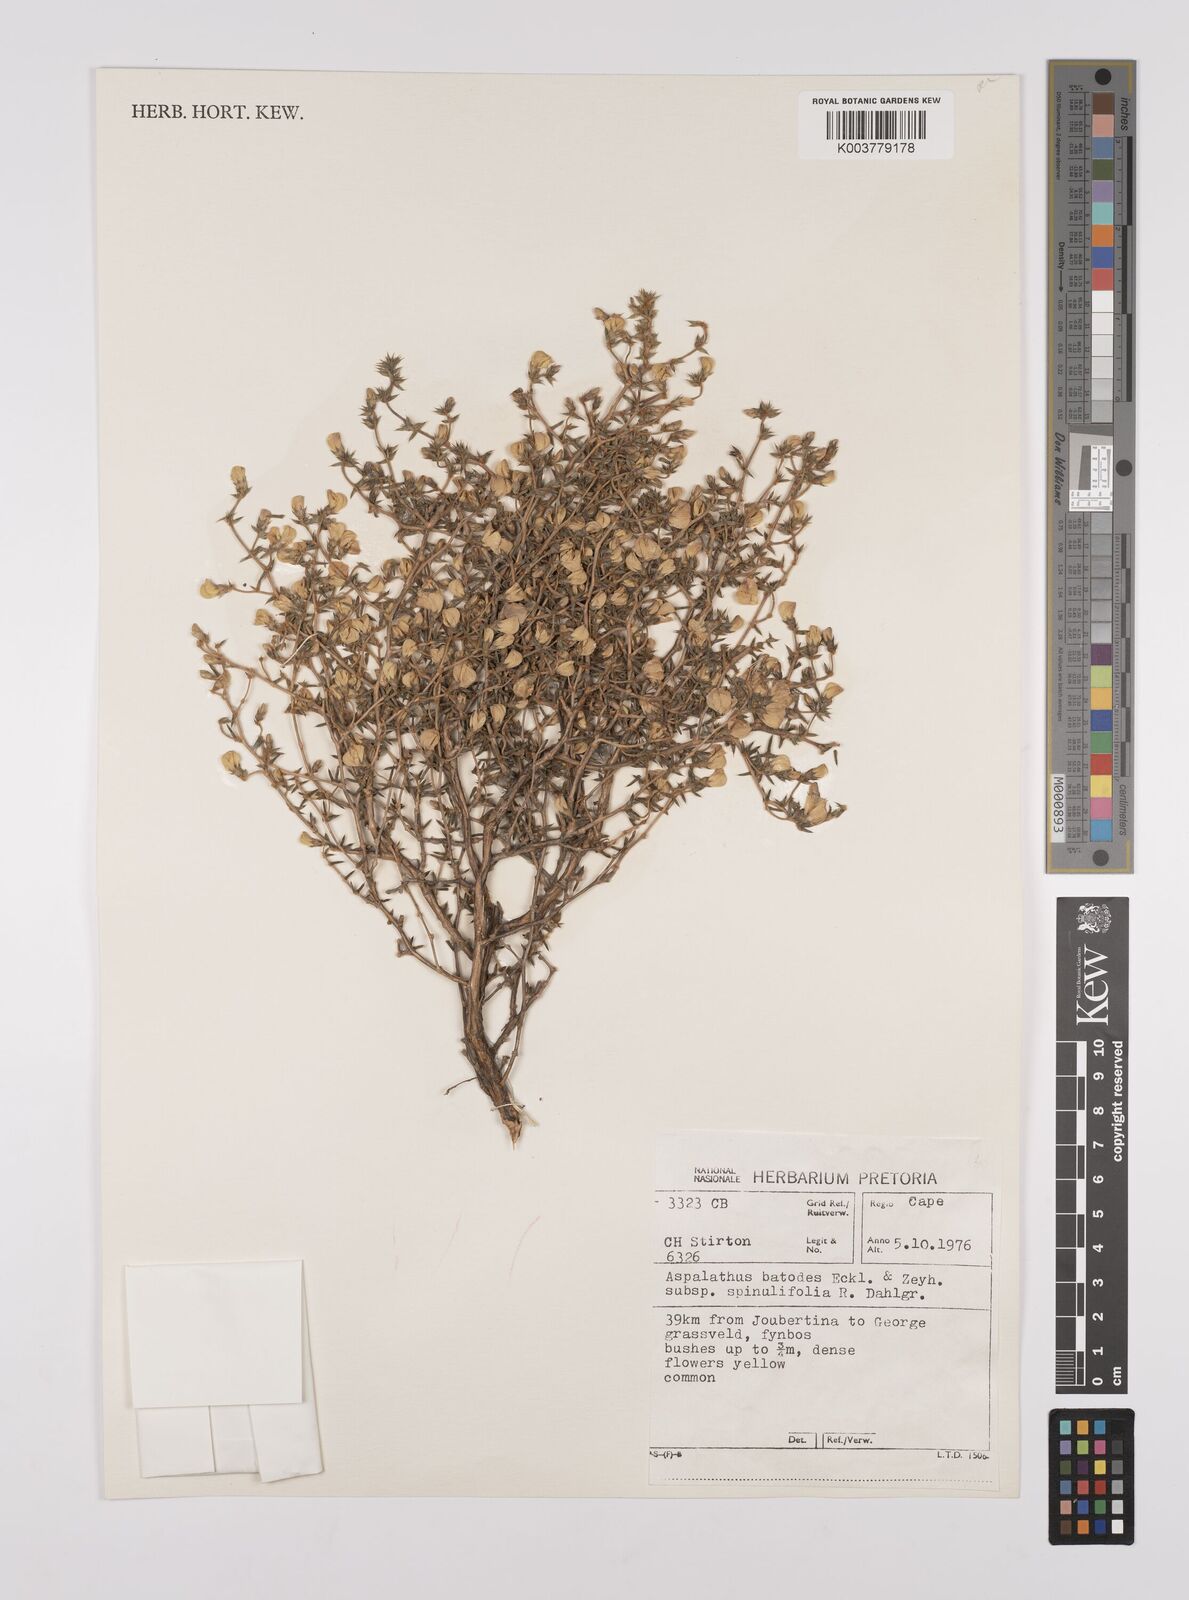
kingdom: Plantae
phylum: Tracheophyta
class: Magnoliopsida
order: Fabales
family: Fabaceae
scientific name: Fabaceae
